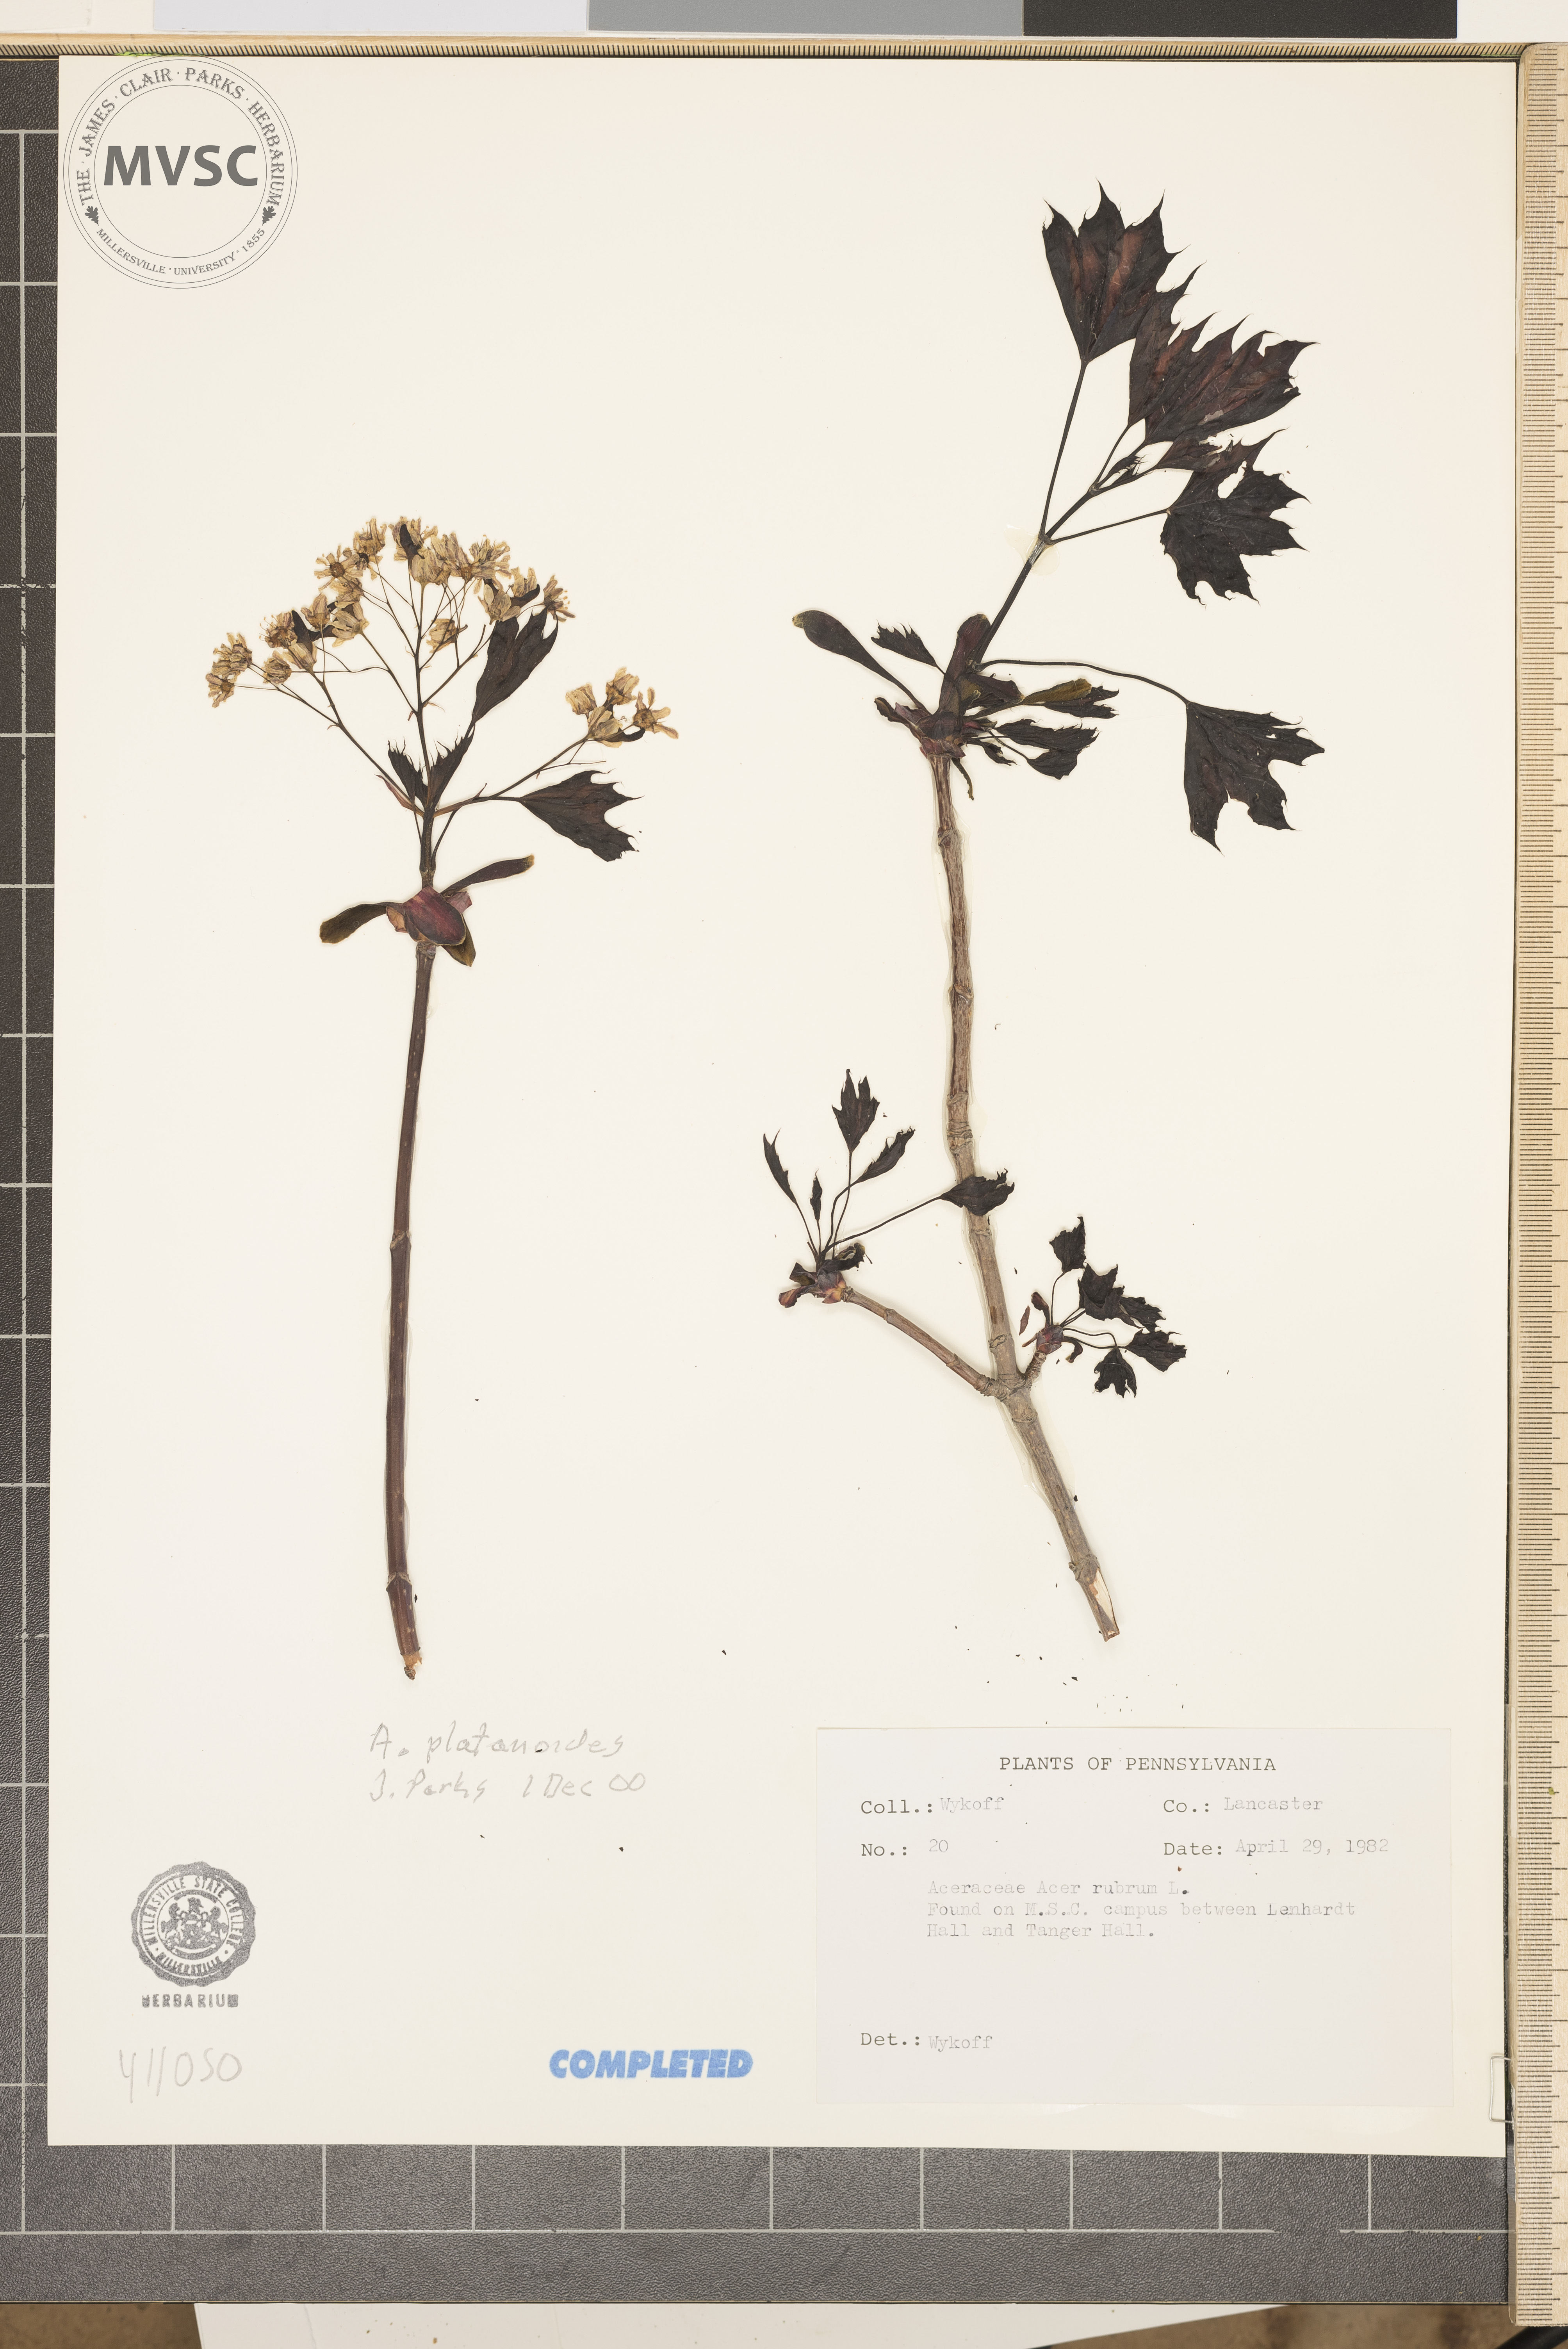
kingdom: Plantae
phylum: Tracheophyta
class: Magnoliopsida
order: Sapindales
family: Sapindaceae
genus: Acer
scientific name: Acer platanoides
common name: Norway maple
